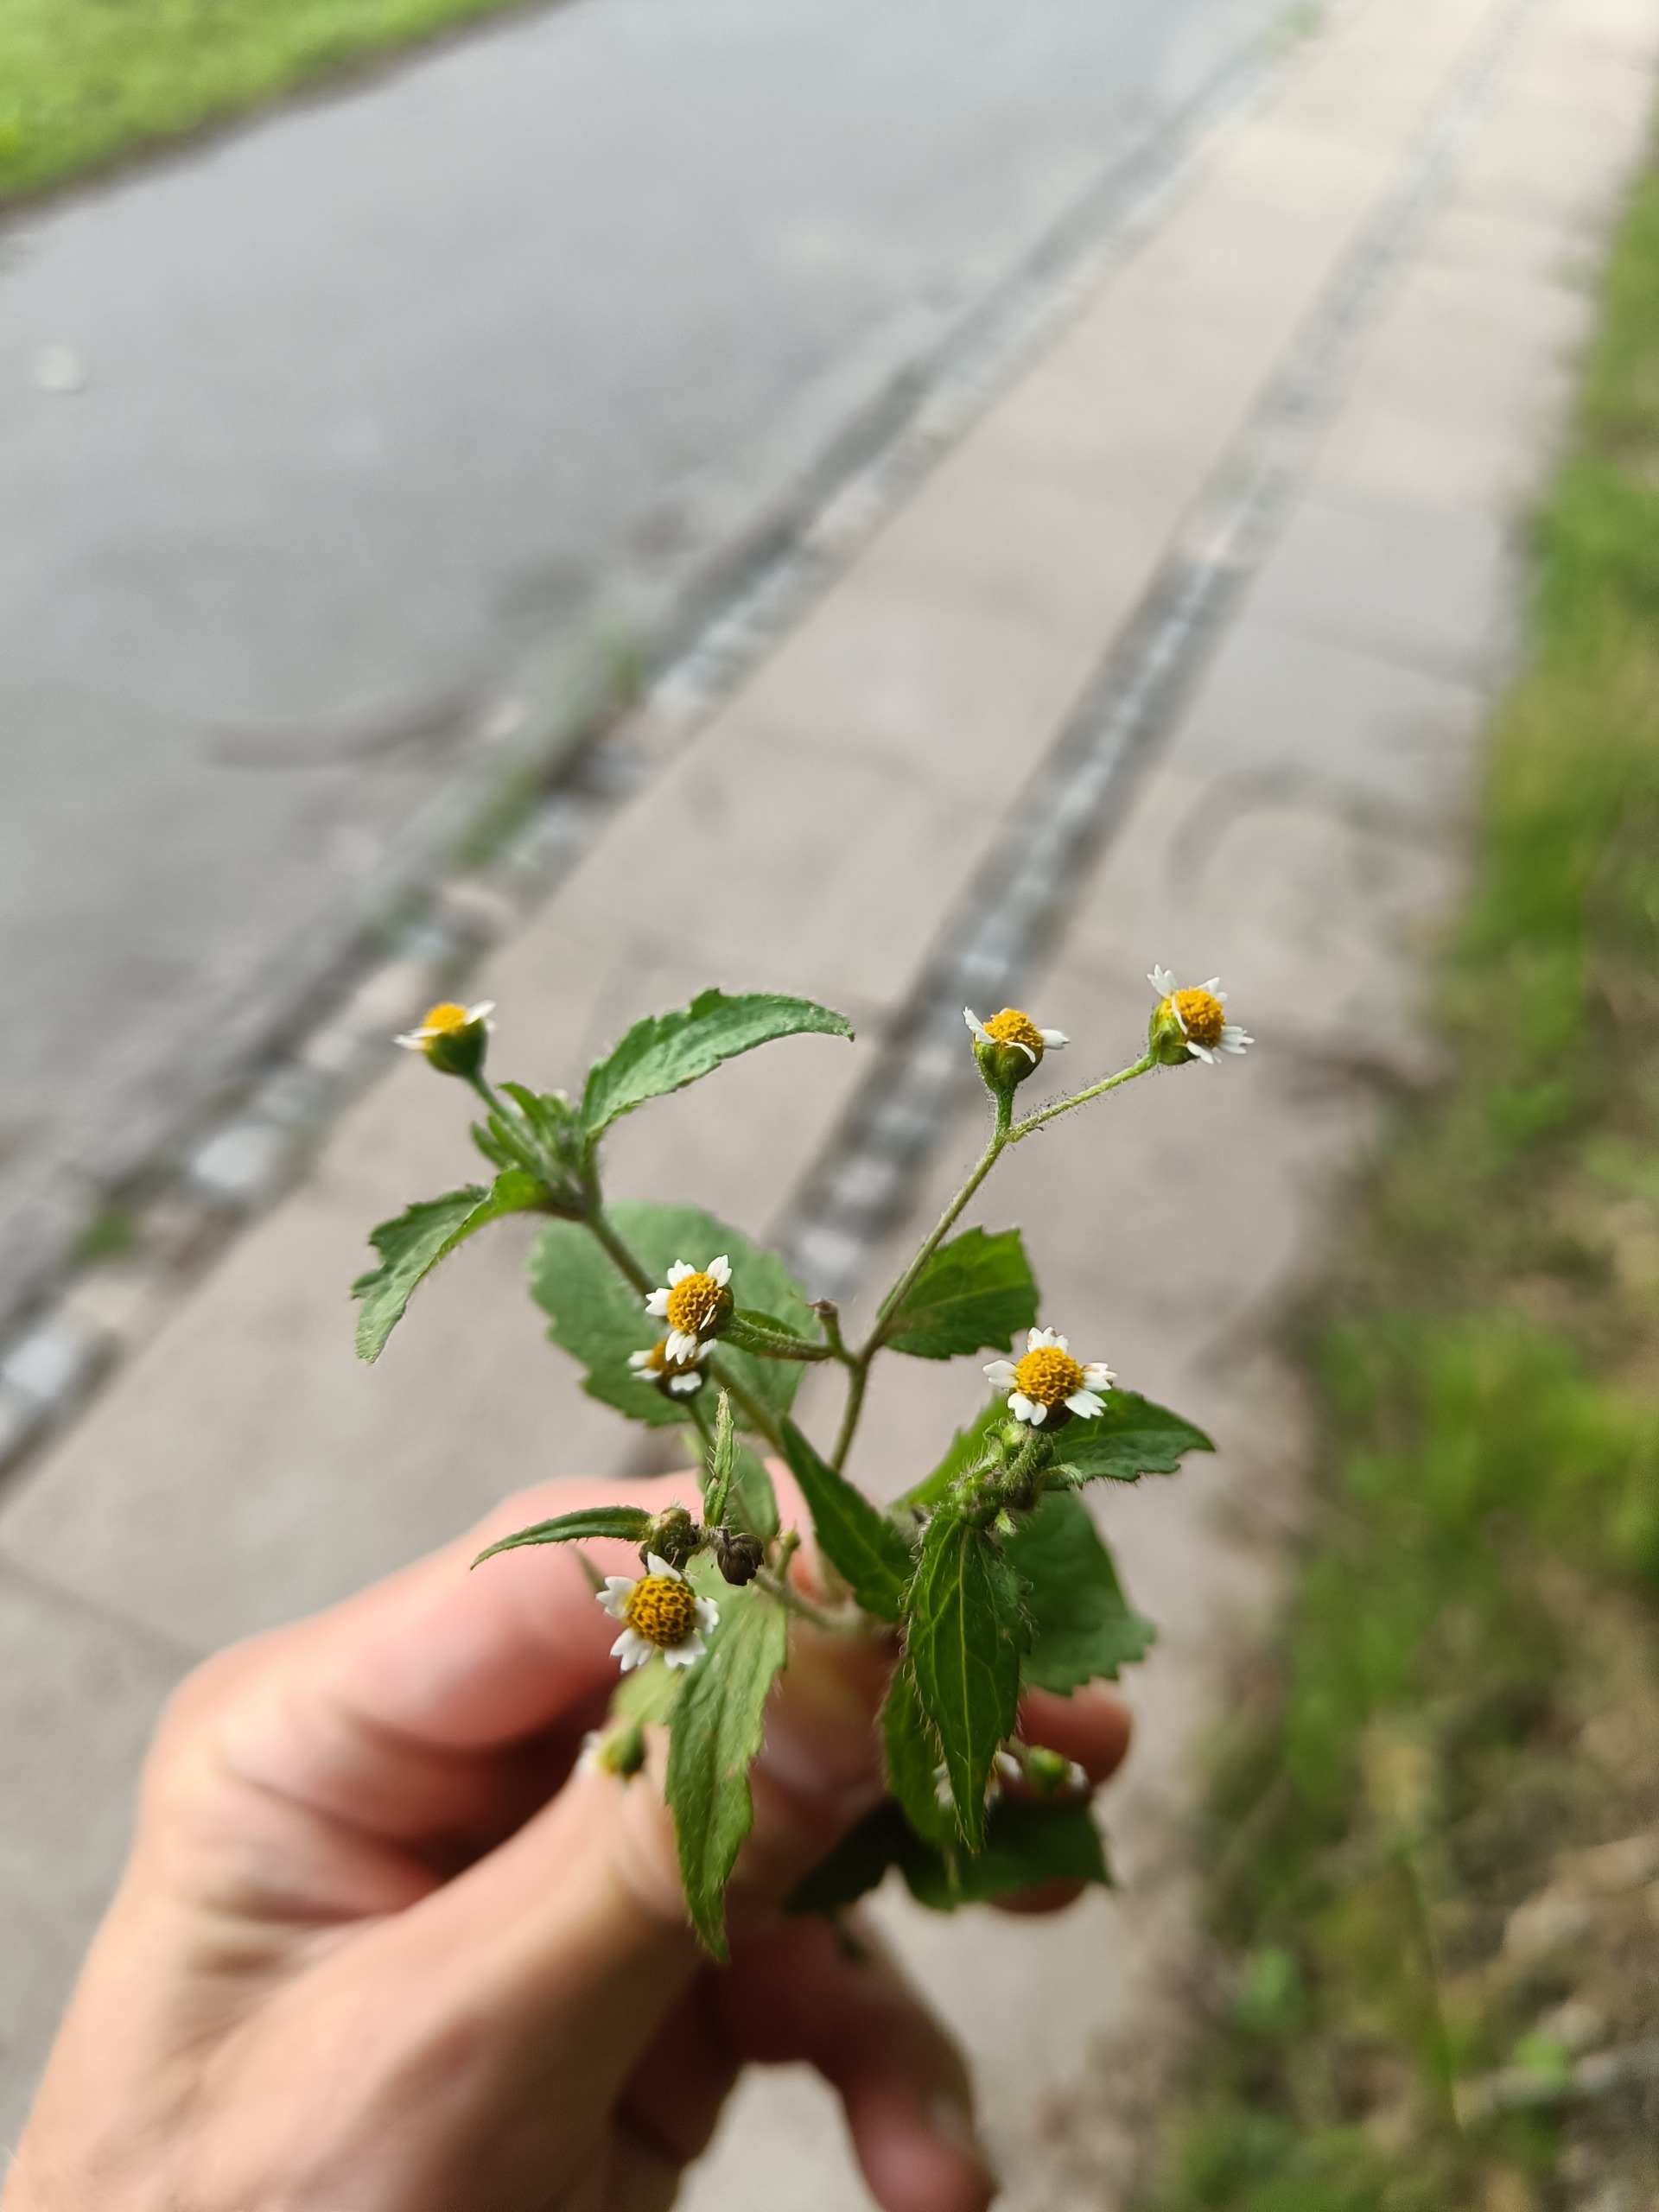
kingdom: Plantae
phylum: Tracheophyta
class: Magnoliopsida
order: Asterales
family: Asteraceae
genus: Galinsoga
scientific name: Galinsoga quadriradiata
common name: Kirtel-kortstråle
